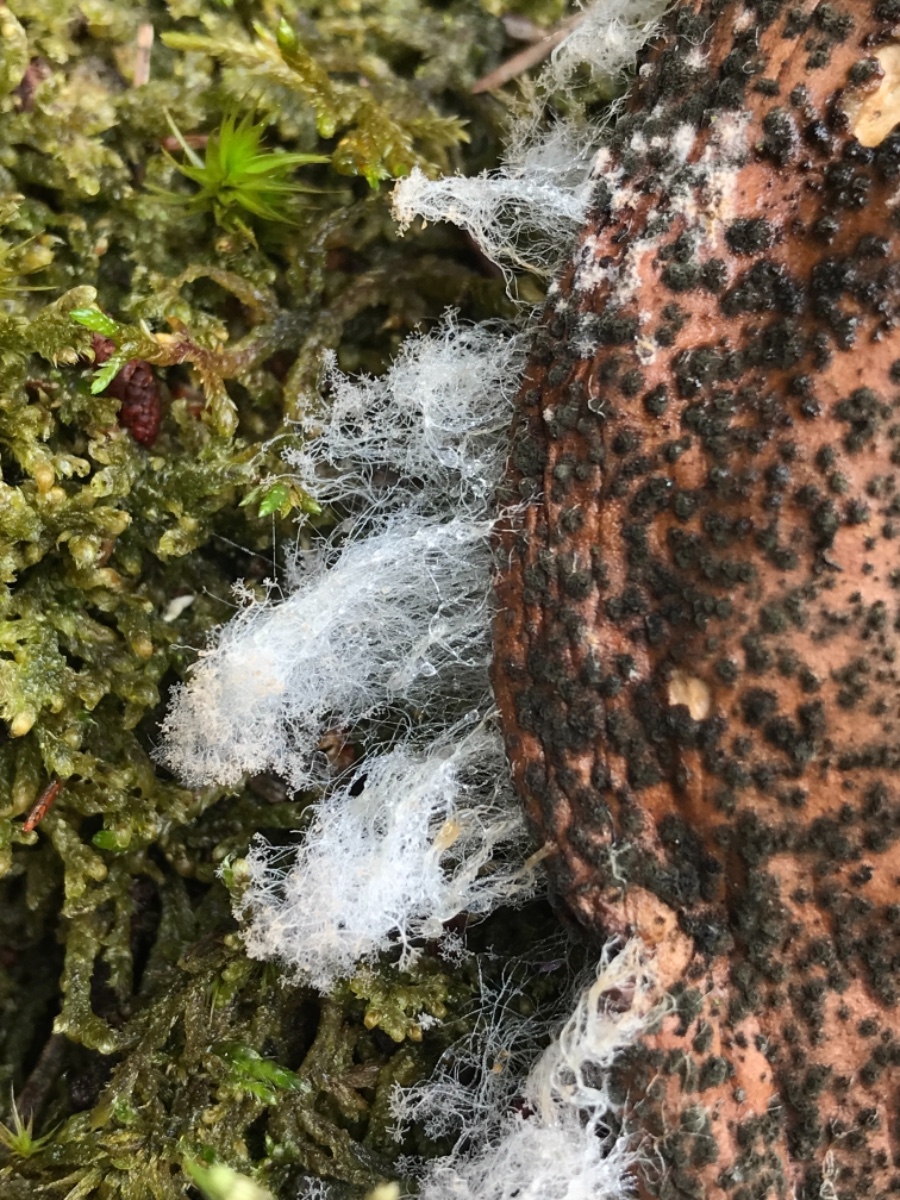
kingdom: Fungi
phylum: Mucoromycota
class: Mucoromycetes
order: Mucorales
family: Rhizopodaceae
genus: Syzygites
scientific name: Syzygites megalocarpus
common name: nissenål
